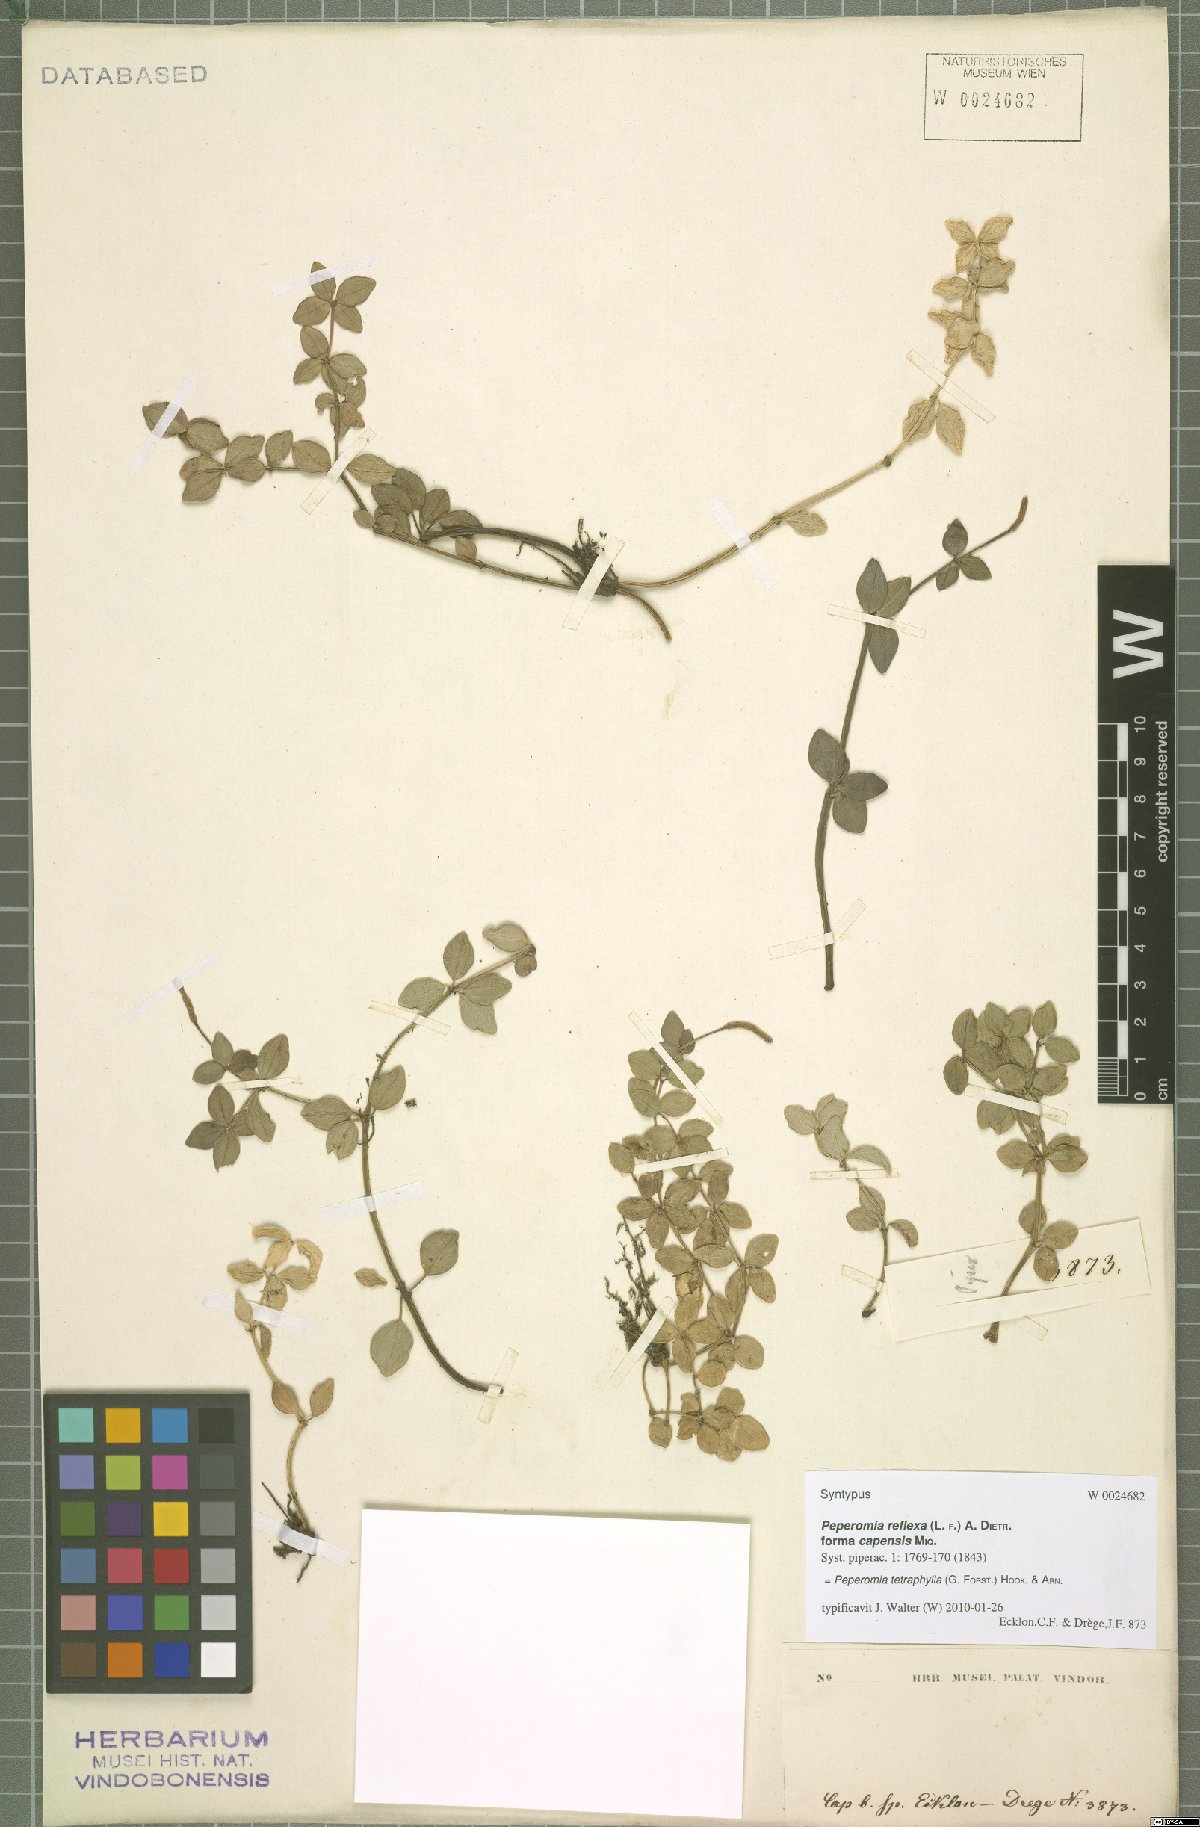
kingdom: Plantae
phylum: Tracheophyta
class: Magnoliopsida
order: Piperales
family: Piperaceae
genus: Peperomia
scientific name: Peperomia tetraphylla
